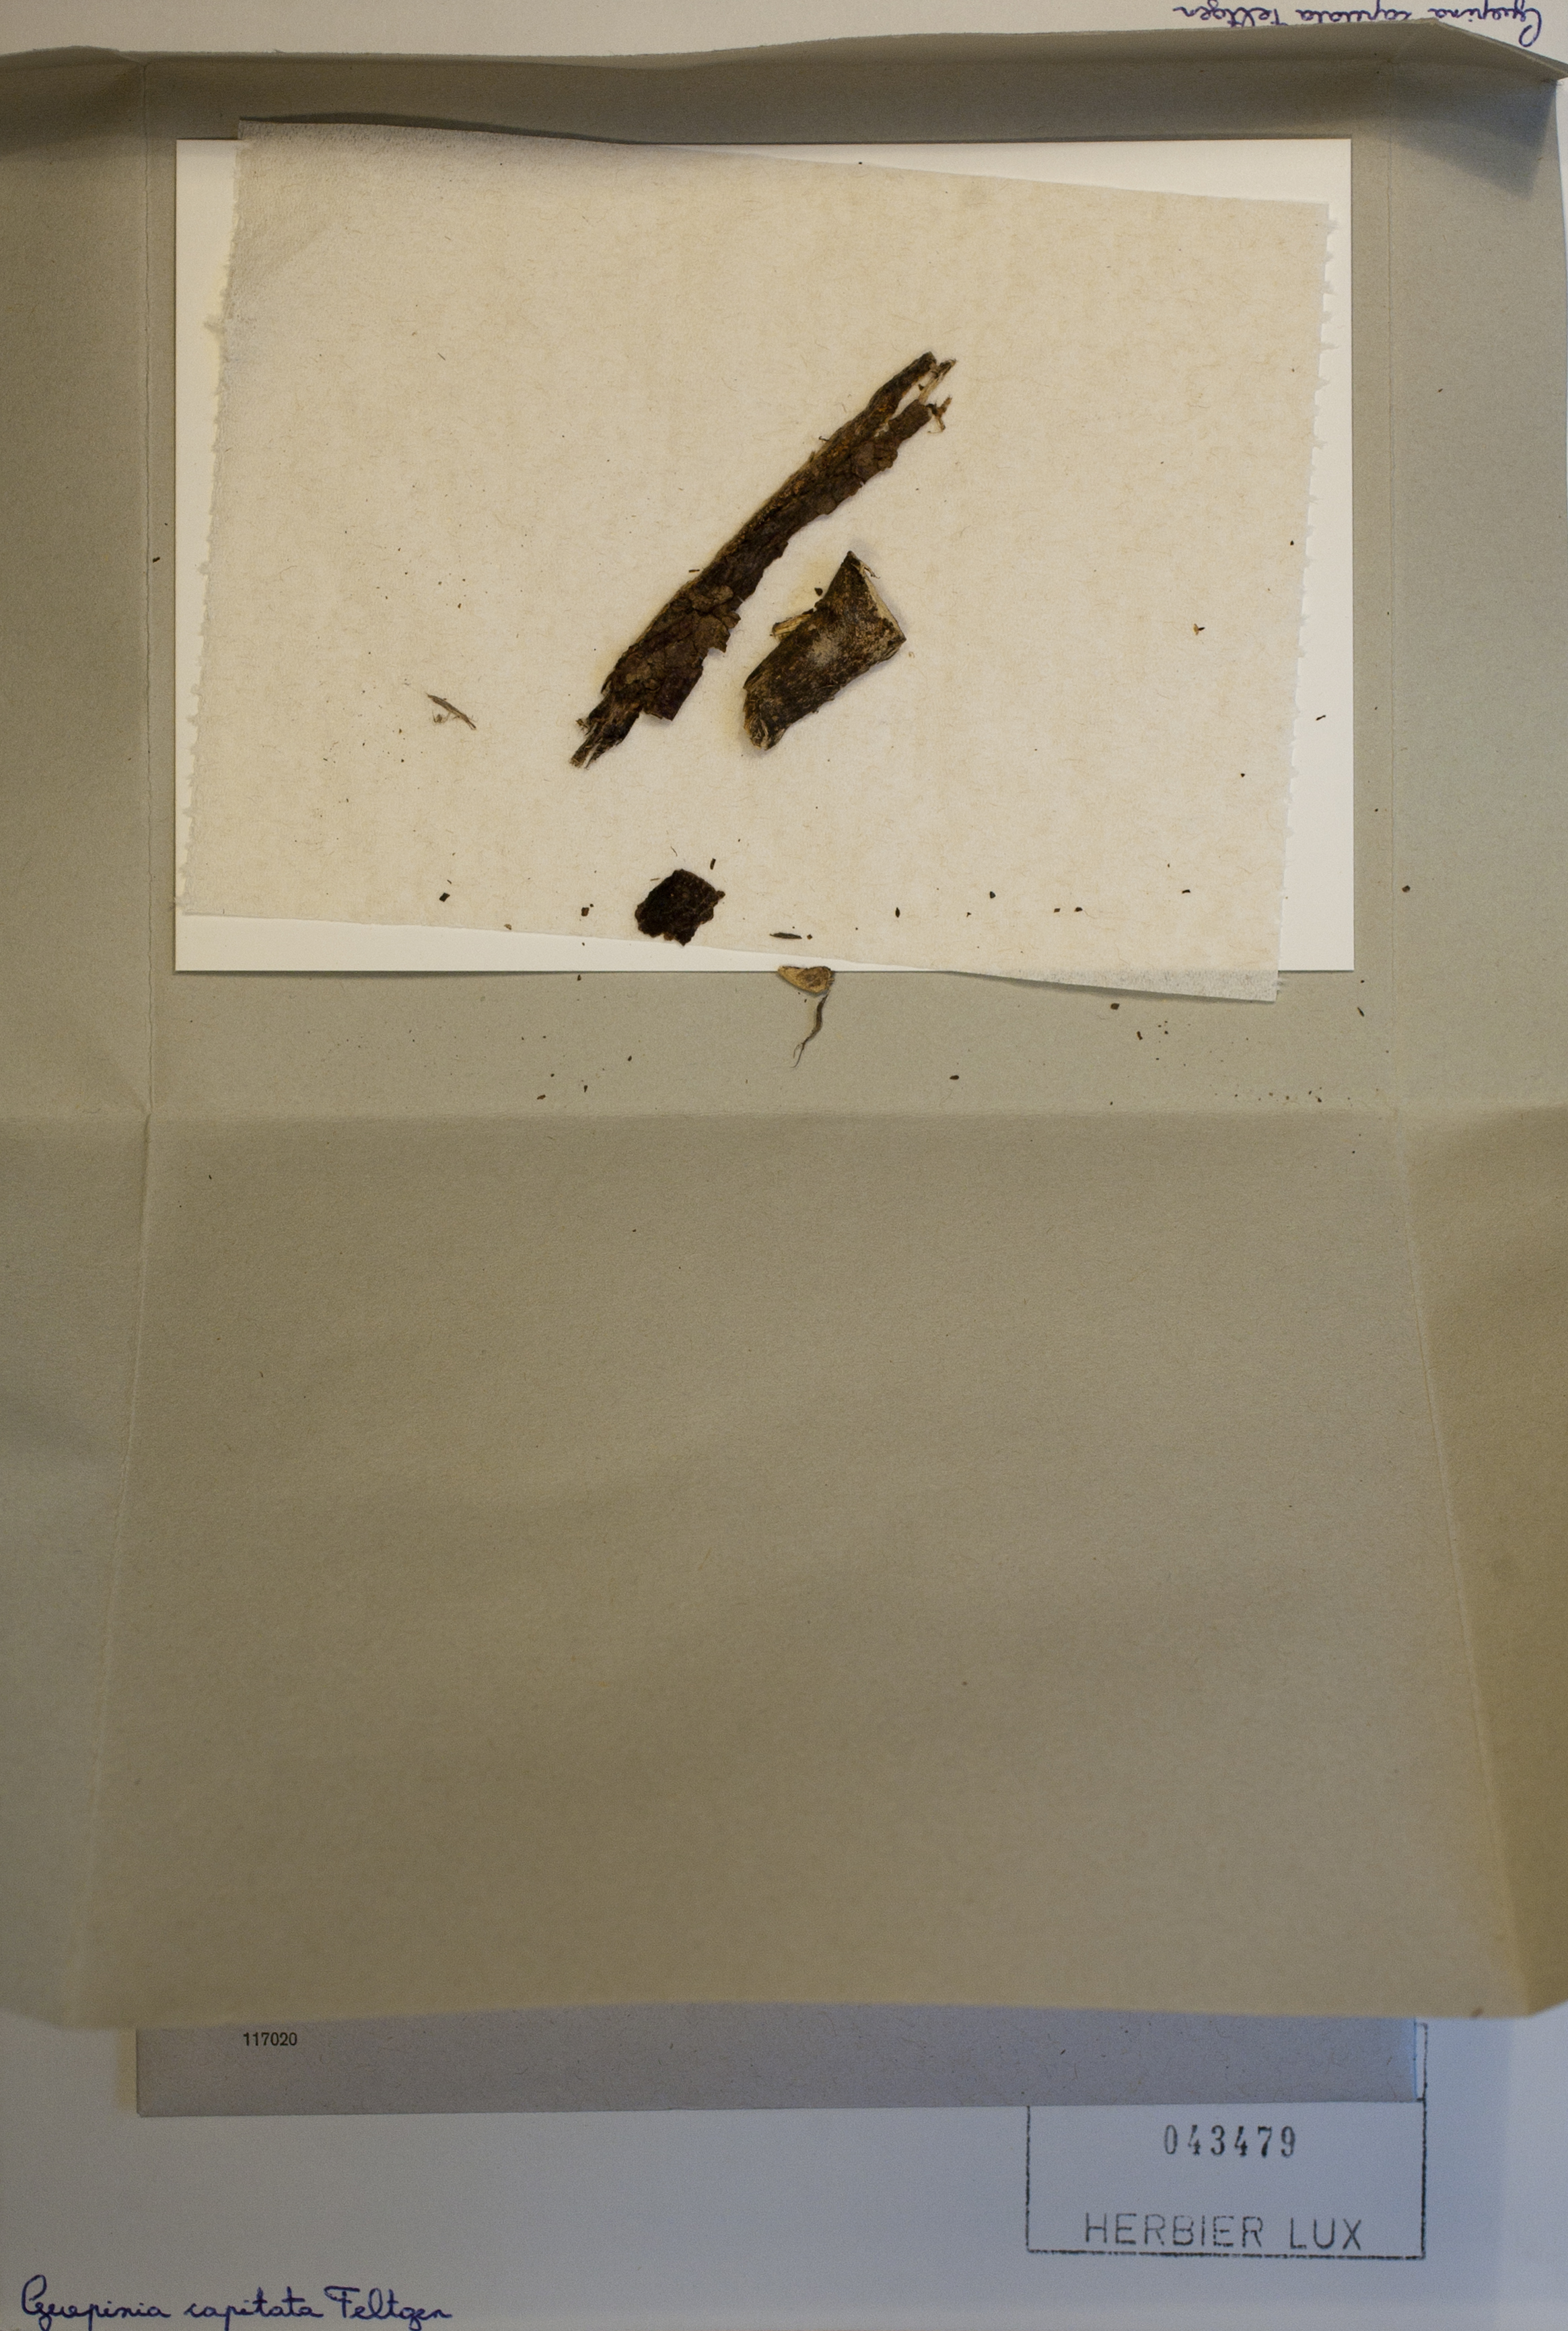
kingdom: Fungi
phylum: Basidiomycota
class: Agaricomycetes
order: Auriculariales
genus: Guepinia
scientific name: Guepinia capitata
